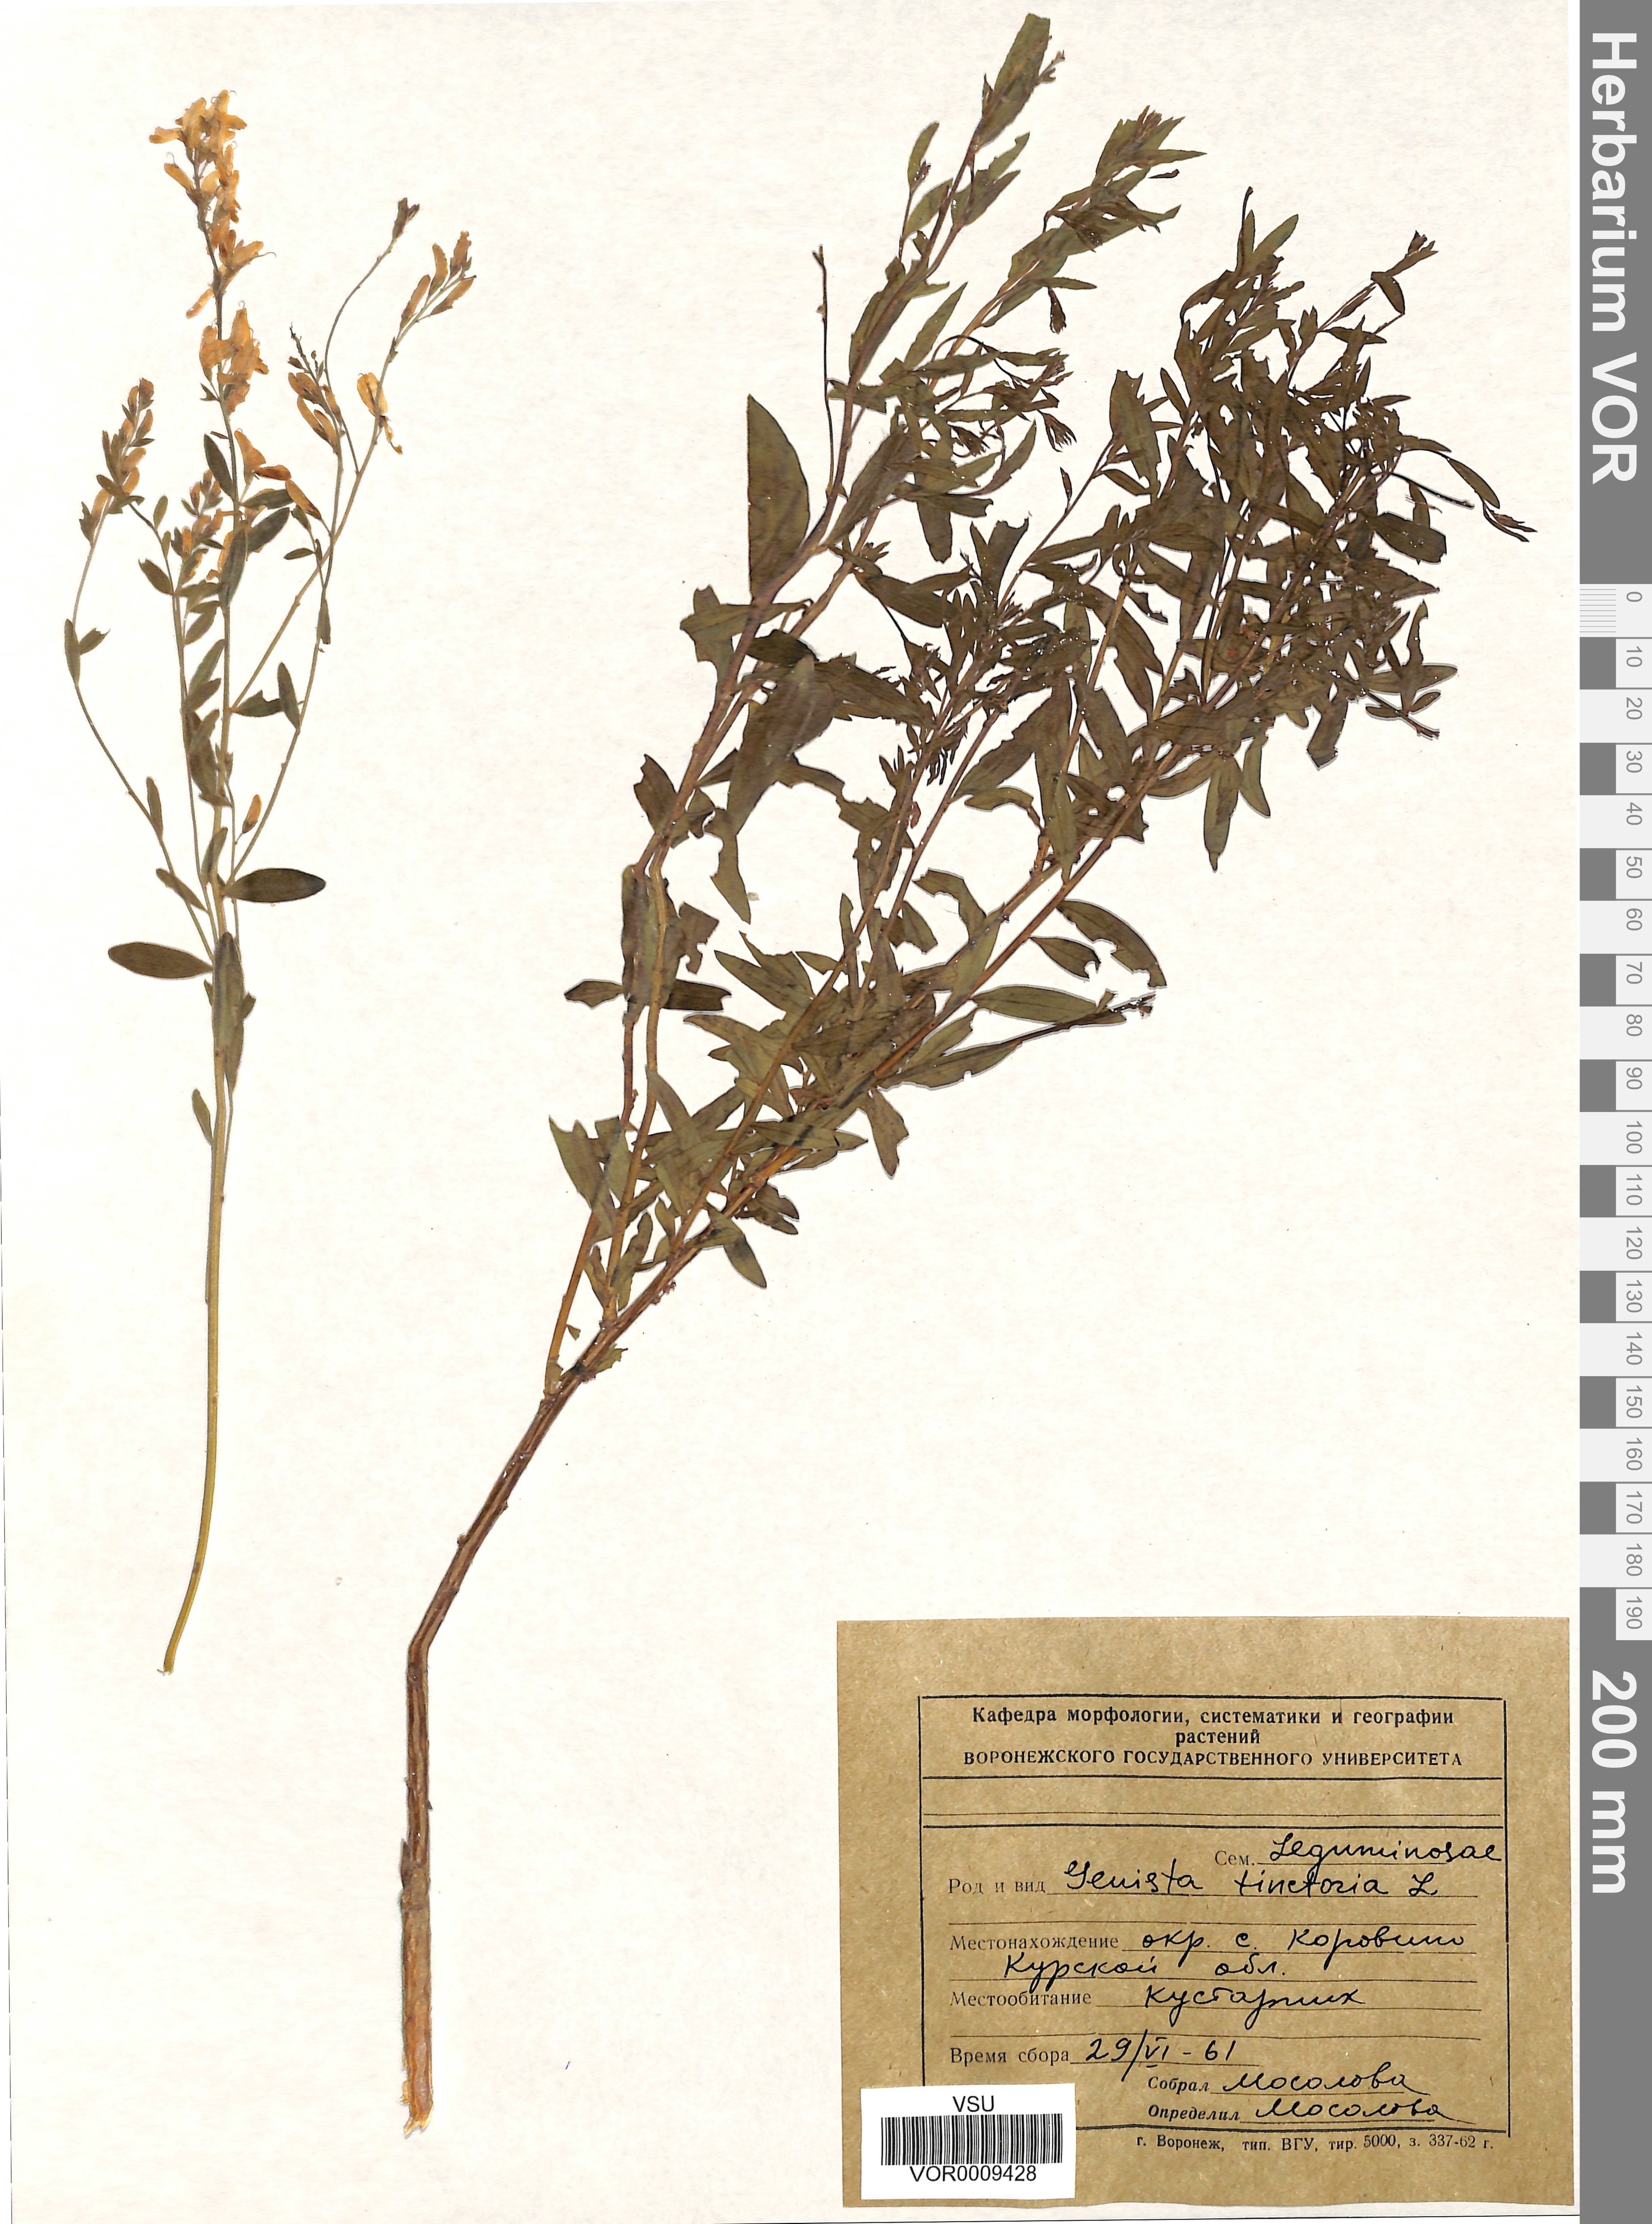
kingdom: Plantae
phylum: Tracheophyta
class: Magnoliopsida
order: Fabales
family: Fabaceae
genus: Genista
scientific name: Genista tinctoria
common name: Dyer's greenweed
